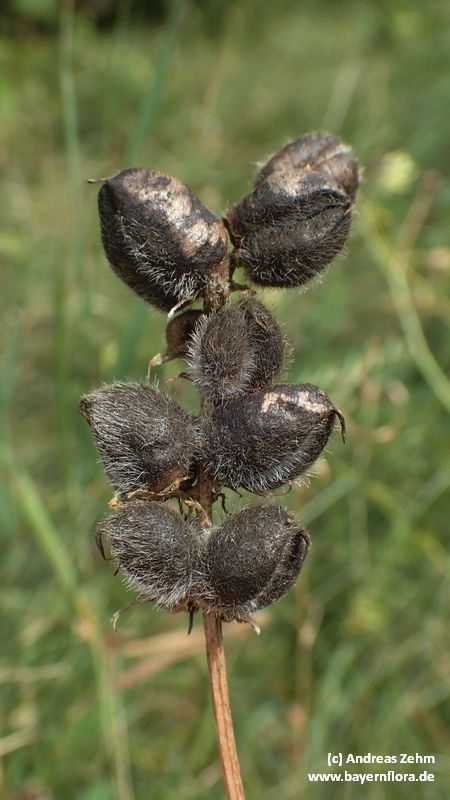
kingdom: Plantae
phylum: Tracheophyta
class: Magnoliopsida
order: Fabales
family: Fabaceae
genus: Astragalus
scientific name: Astragalus cicer
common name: Chick-pea milk-vetch
